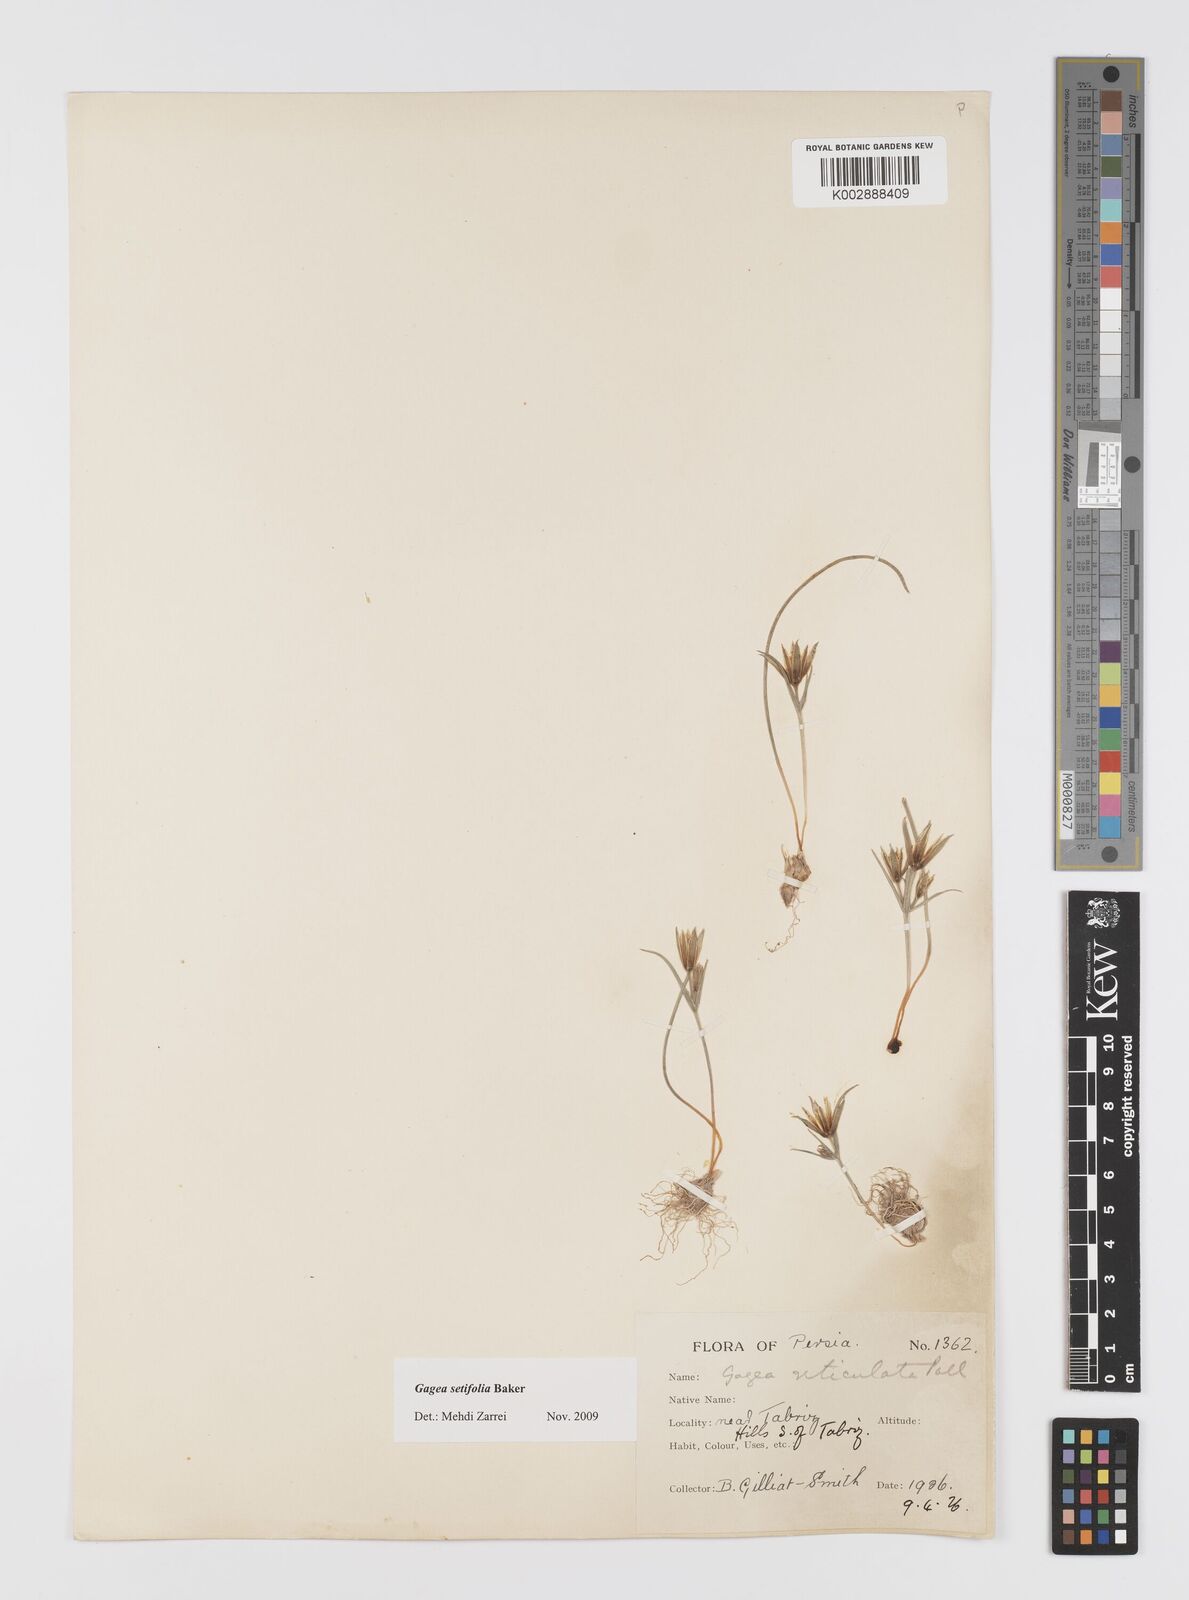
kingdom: Plantae
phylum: Tracheophyta
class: Liliopsida
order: Liliales
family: Liliaceae
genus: Gagea
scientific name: Gagea setifolia
